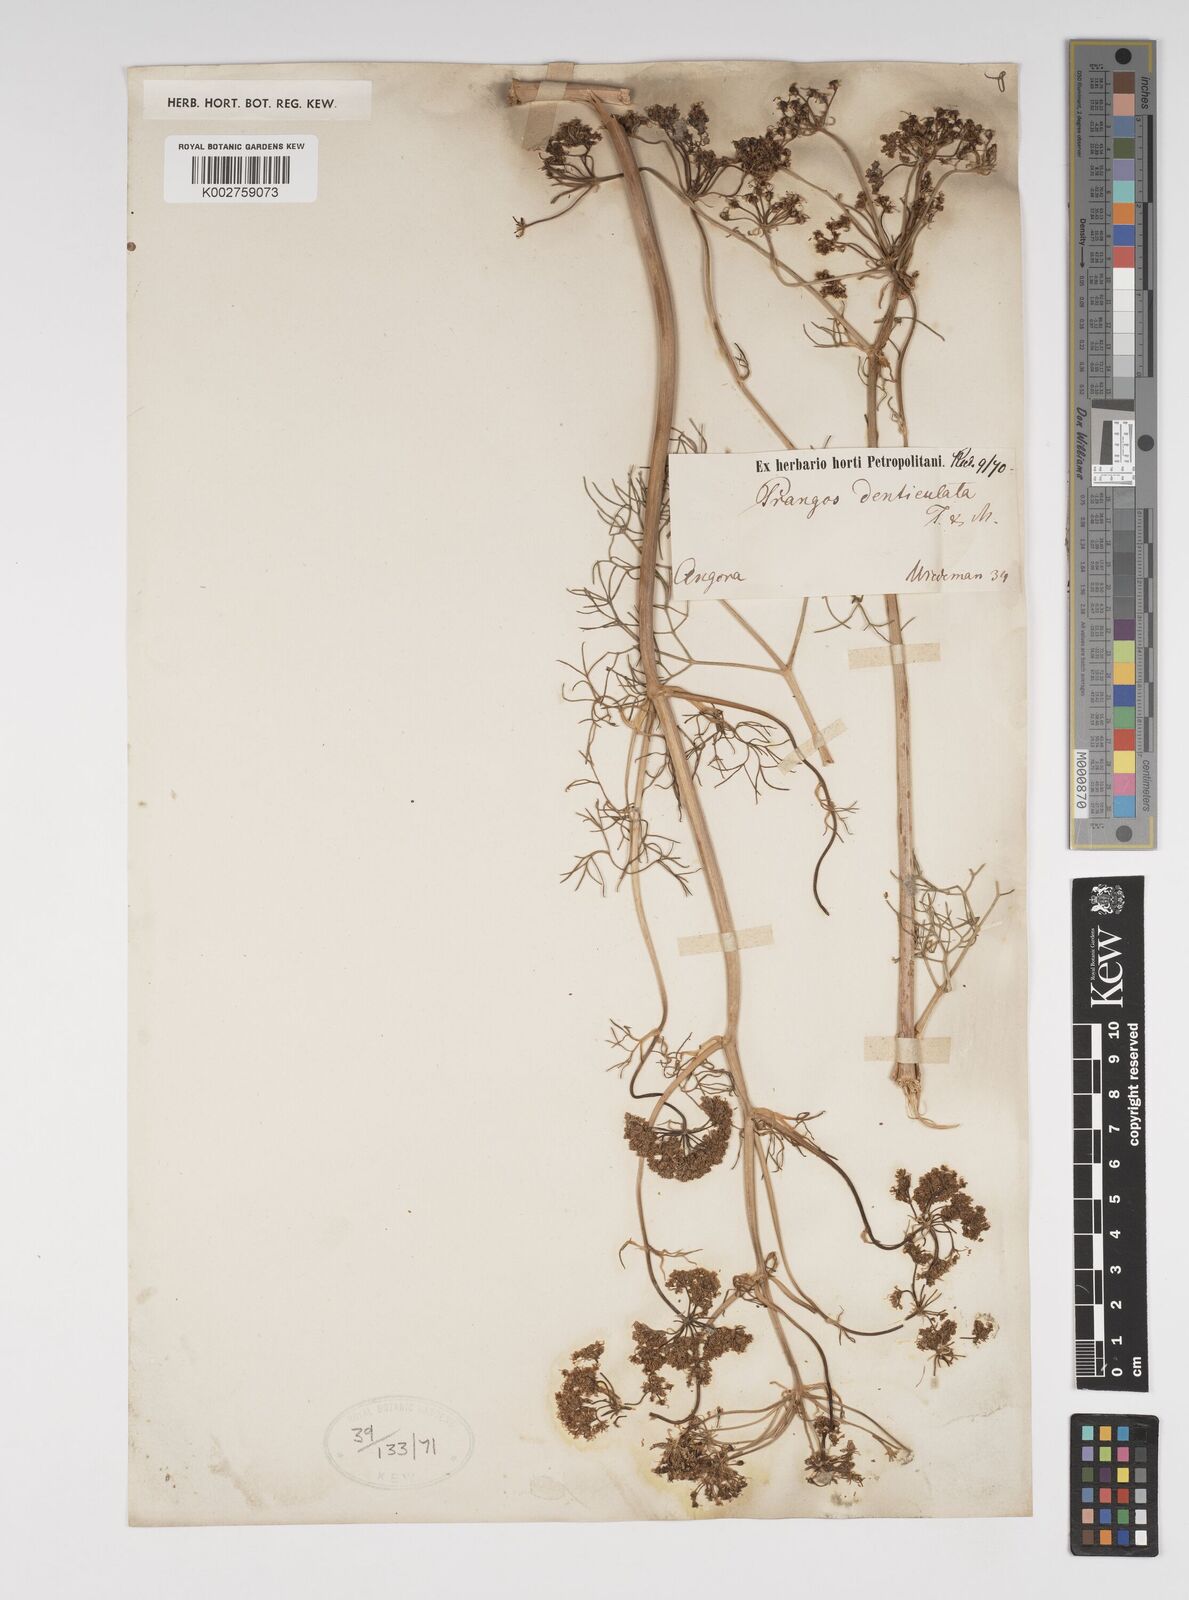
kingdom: Plantae
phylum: Tracheophyta
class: Magnoliopsida
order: Apiales
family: Apiaceae
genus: Prangos
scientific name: Prangos denticulata
